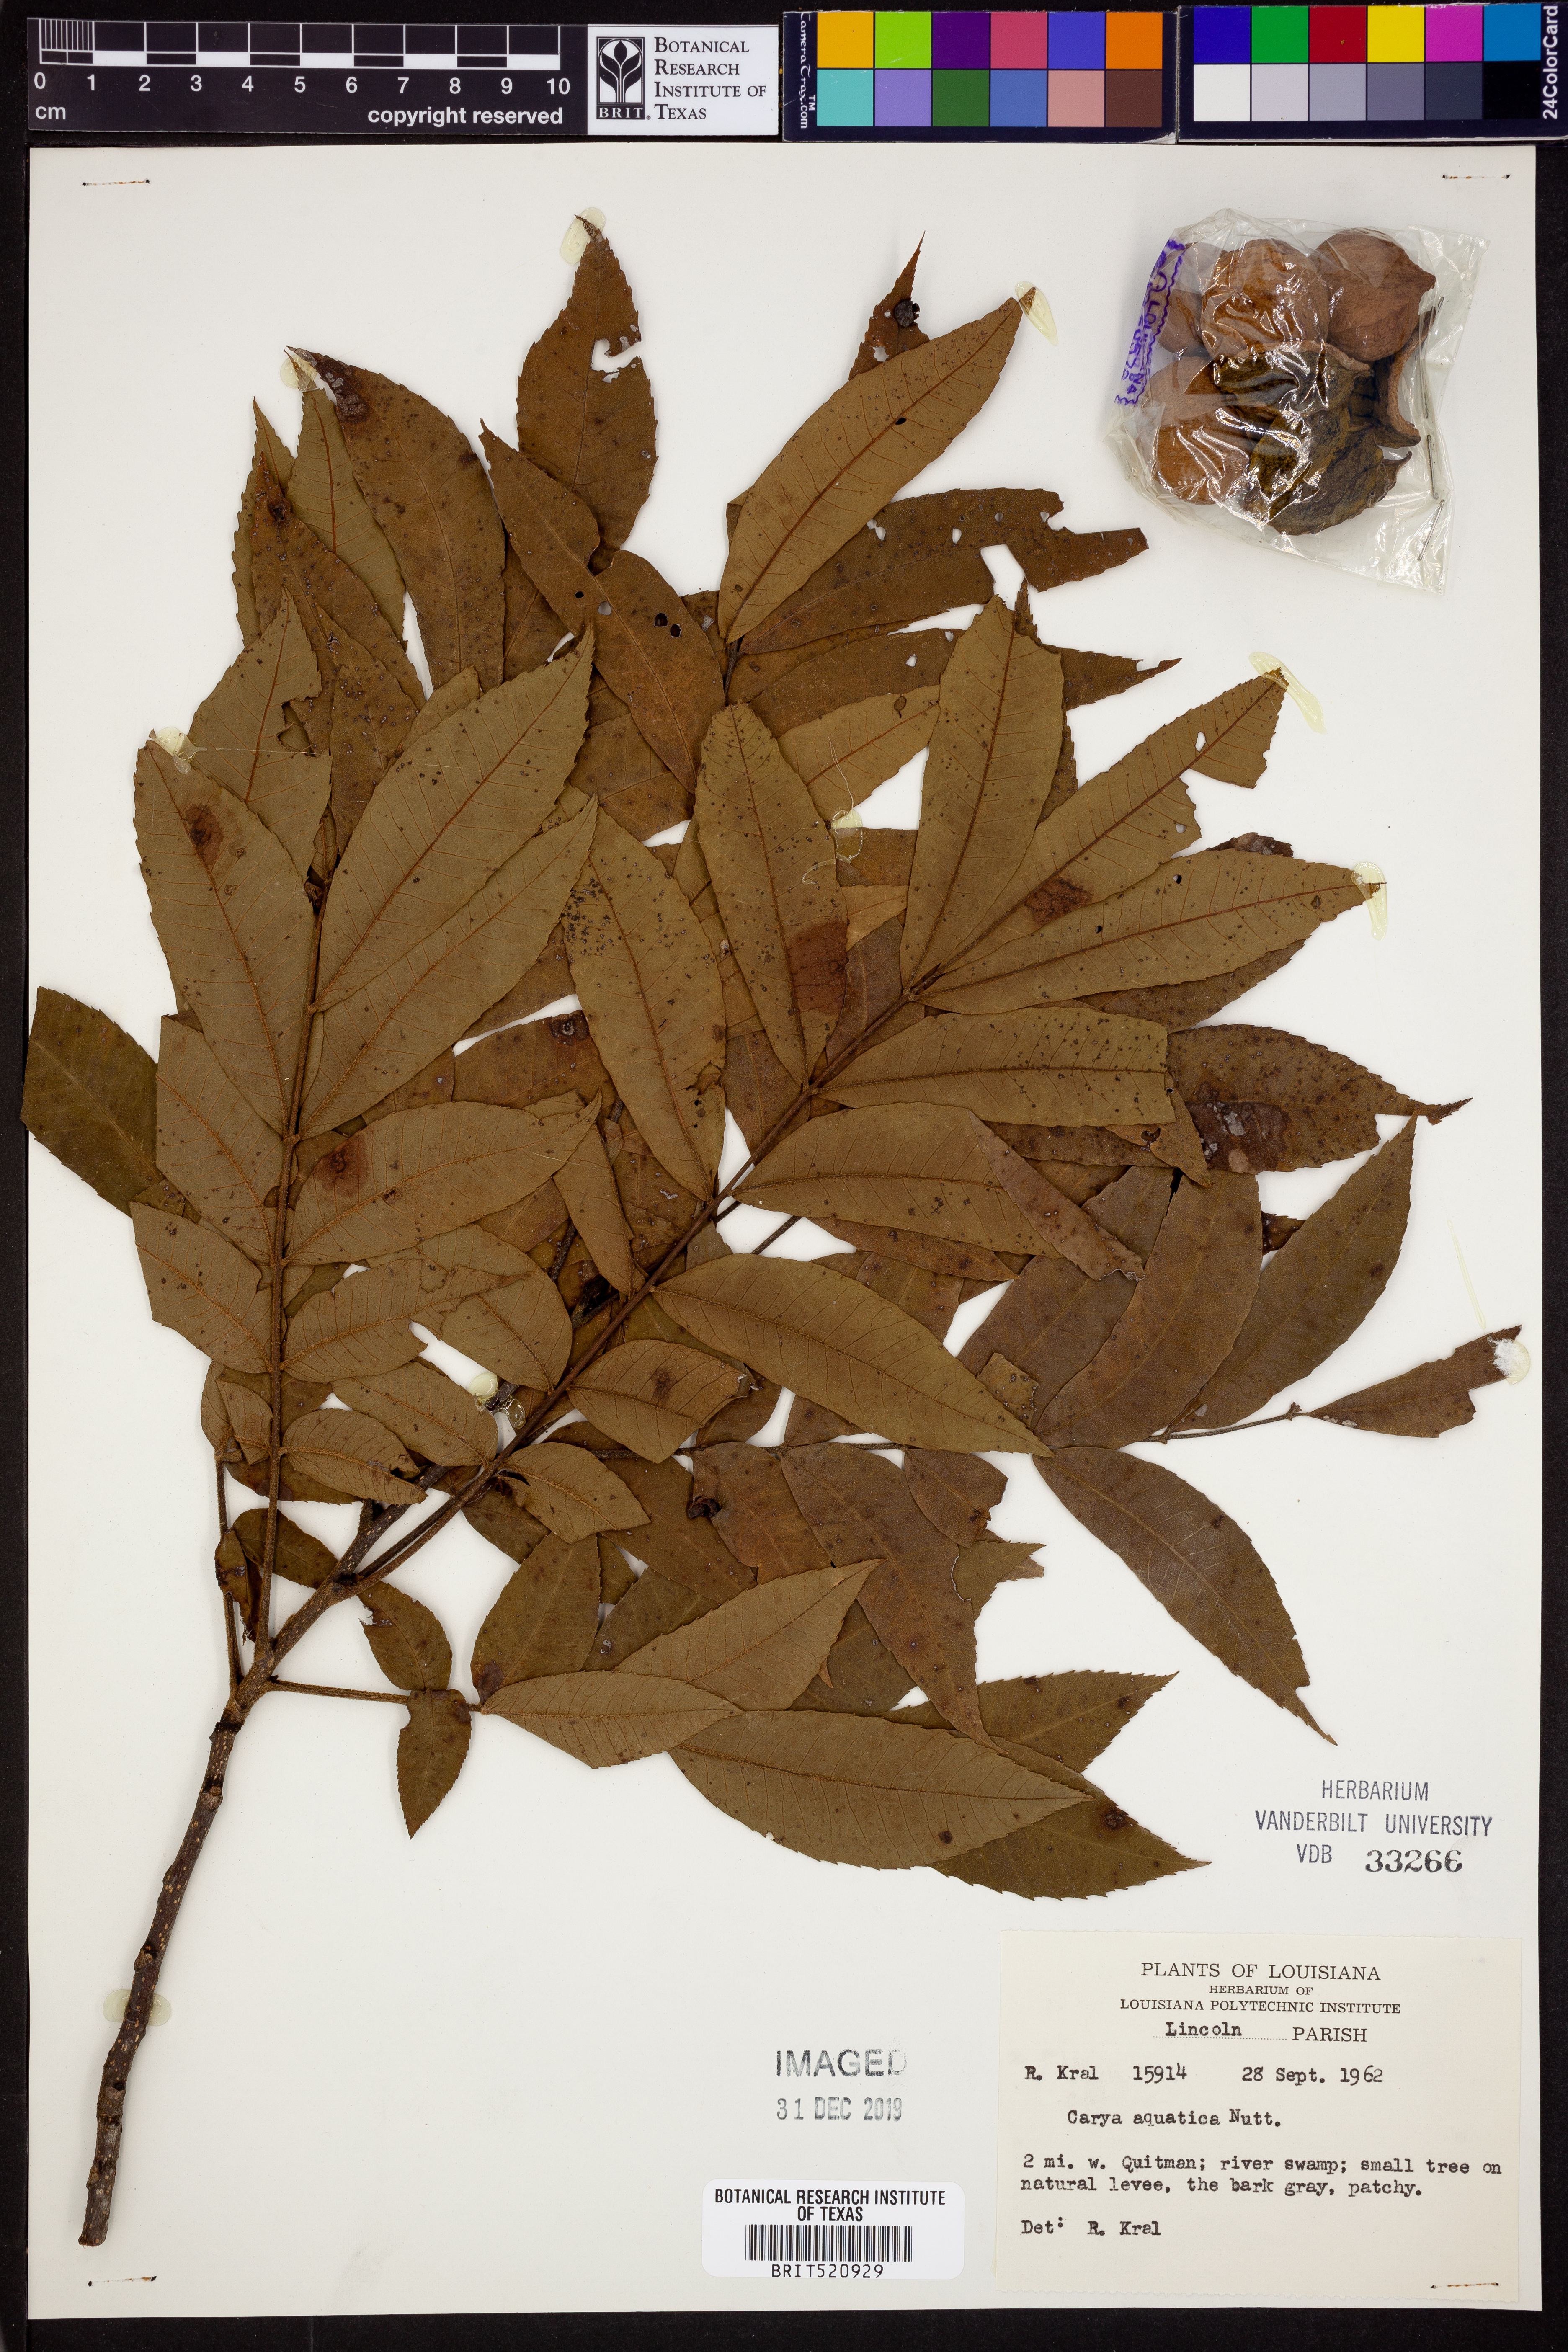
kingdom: Plantae
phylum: Tracheophyta
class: Magnoliopsida
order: Fagales
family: Juglandaceae
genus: Carya
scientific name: Carya aquatica
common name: Water hickory
